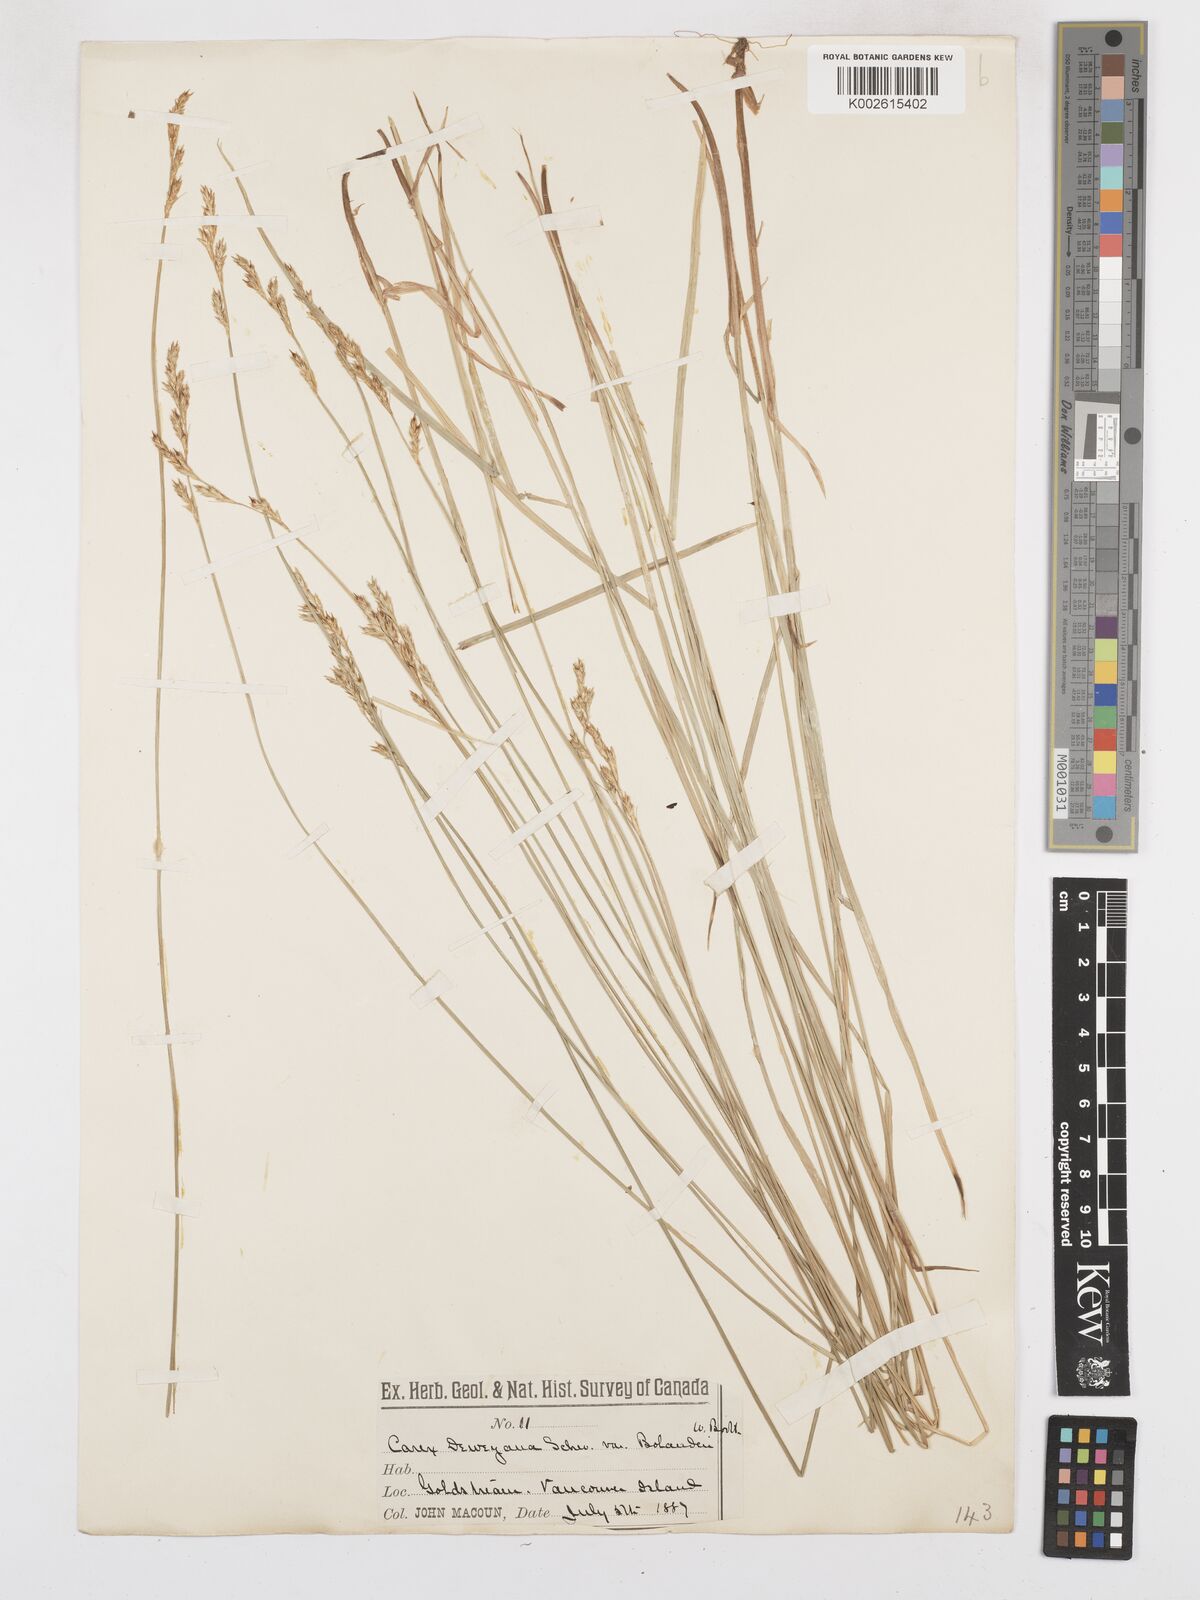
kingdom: Plantae
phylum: Tracheophyta
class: Liliopsida
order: Poales
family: Cyperaceae
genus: Carex
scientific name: Carex bolanderi
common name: Bolander's sedge
